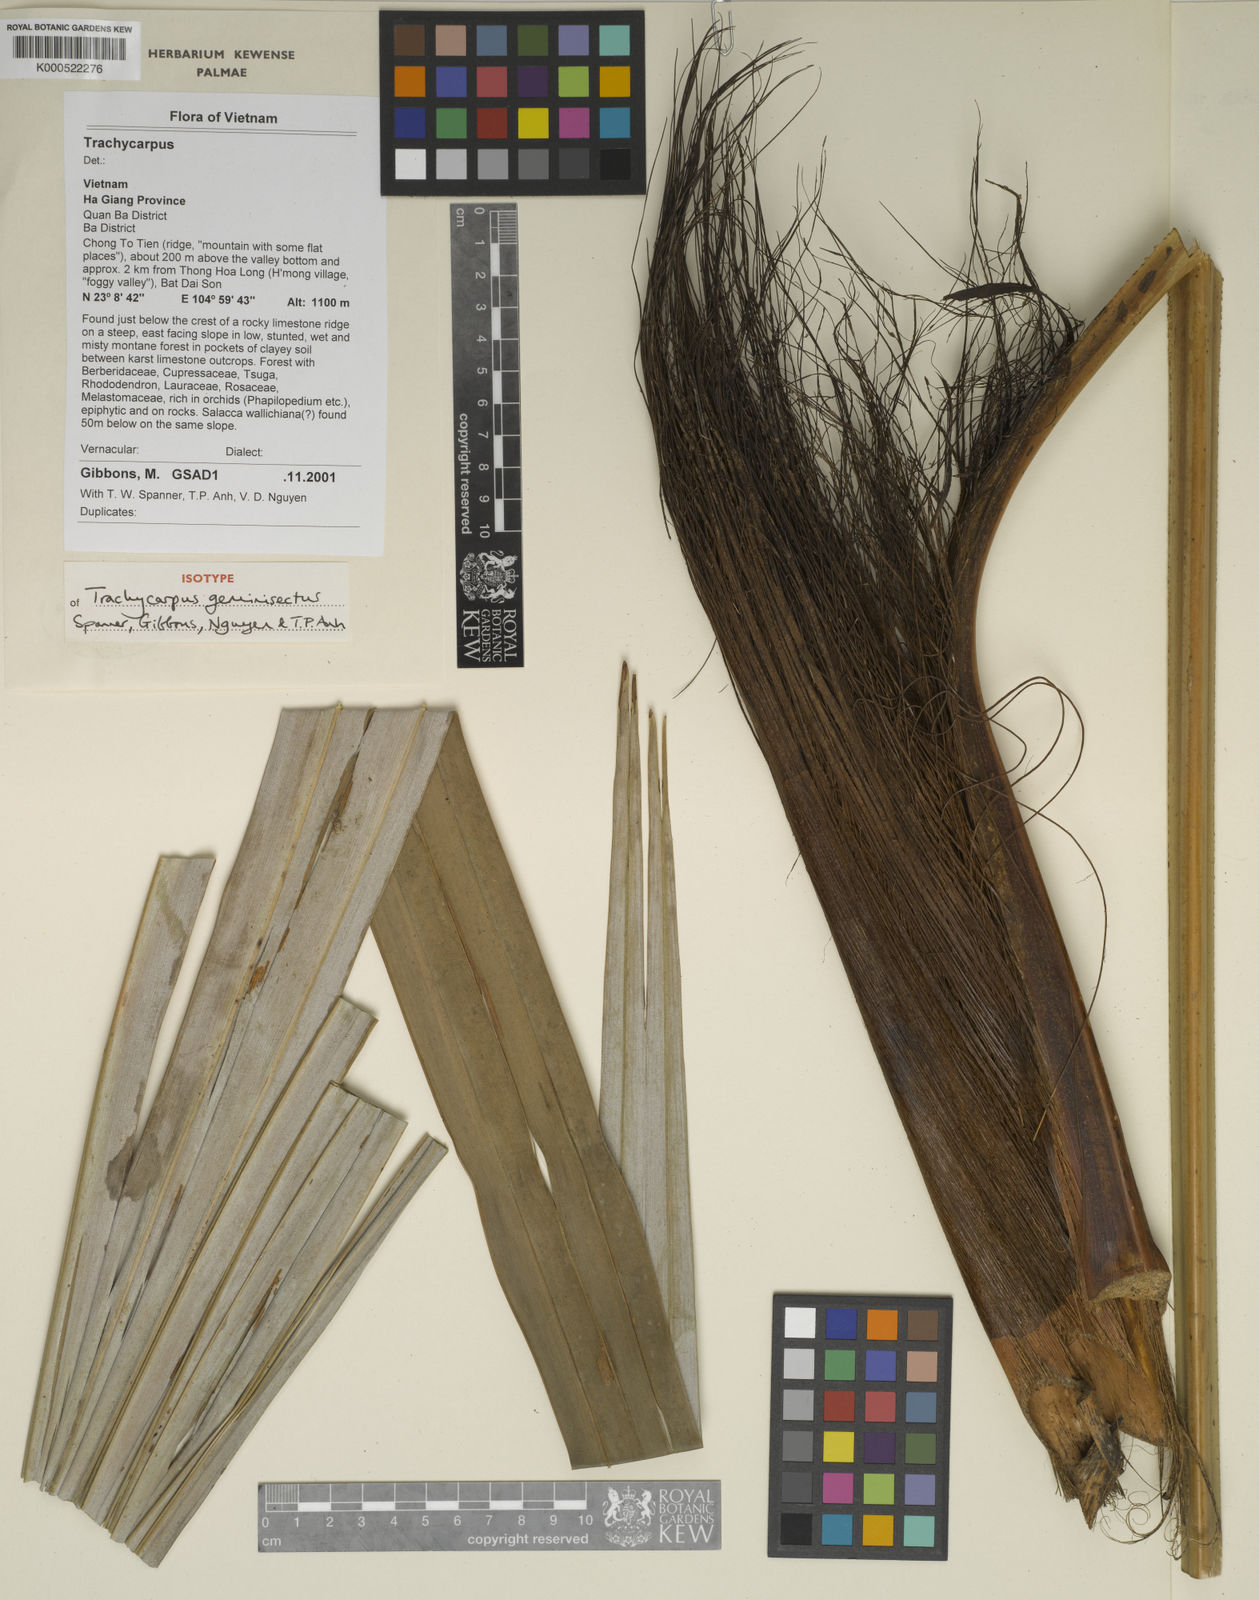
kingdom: Plantae
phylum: Tracheophyta
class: Liliopsida
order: Arecales
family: Arecaceae
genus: Trachycarpus
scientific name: Trachycarpus geminisectus
